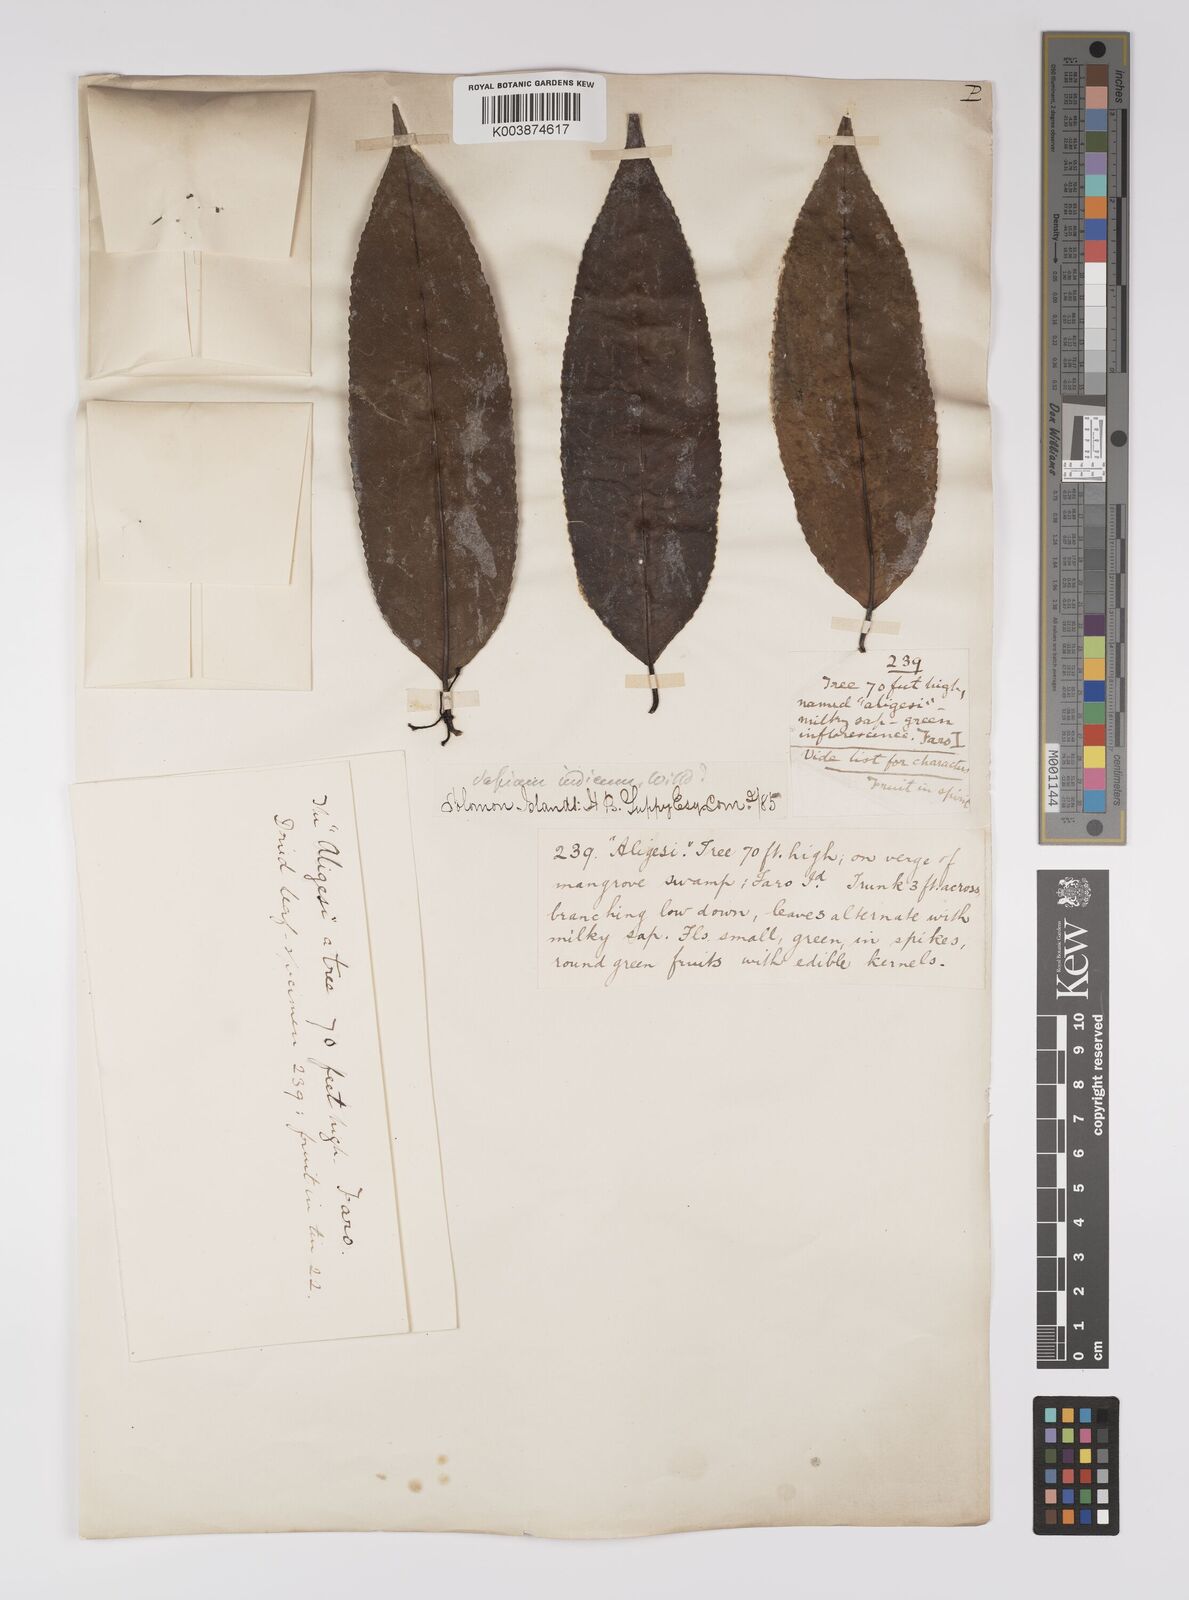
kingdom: Plantae
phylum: Tracheophyta
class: Magnoliopsida
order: Malpighiales
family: Euphorbiaceae
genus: Shirakiopsis
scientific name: Shirakiopsis indica
